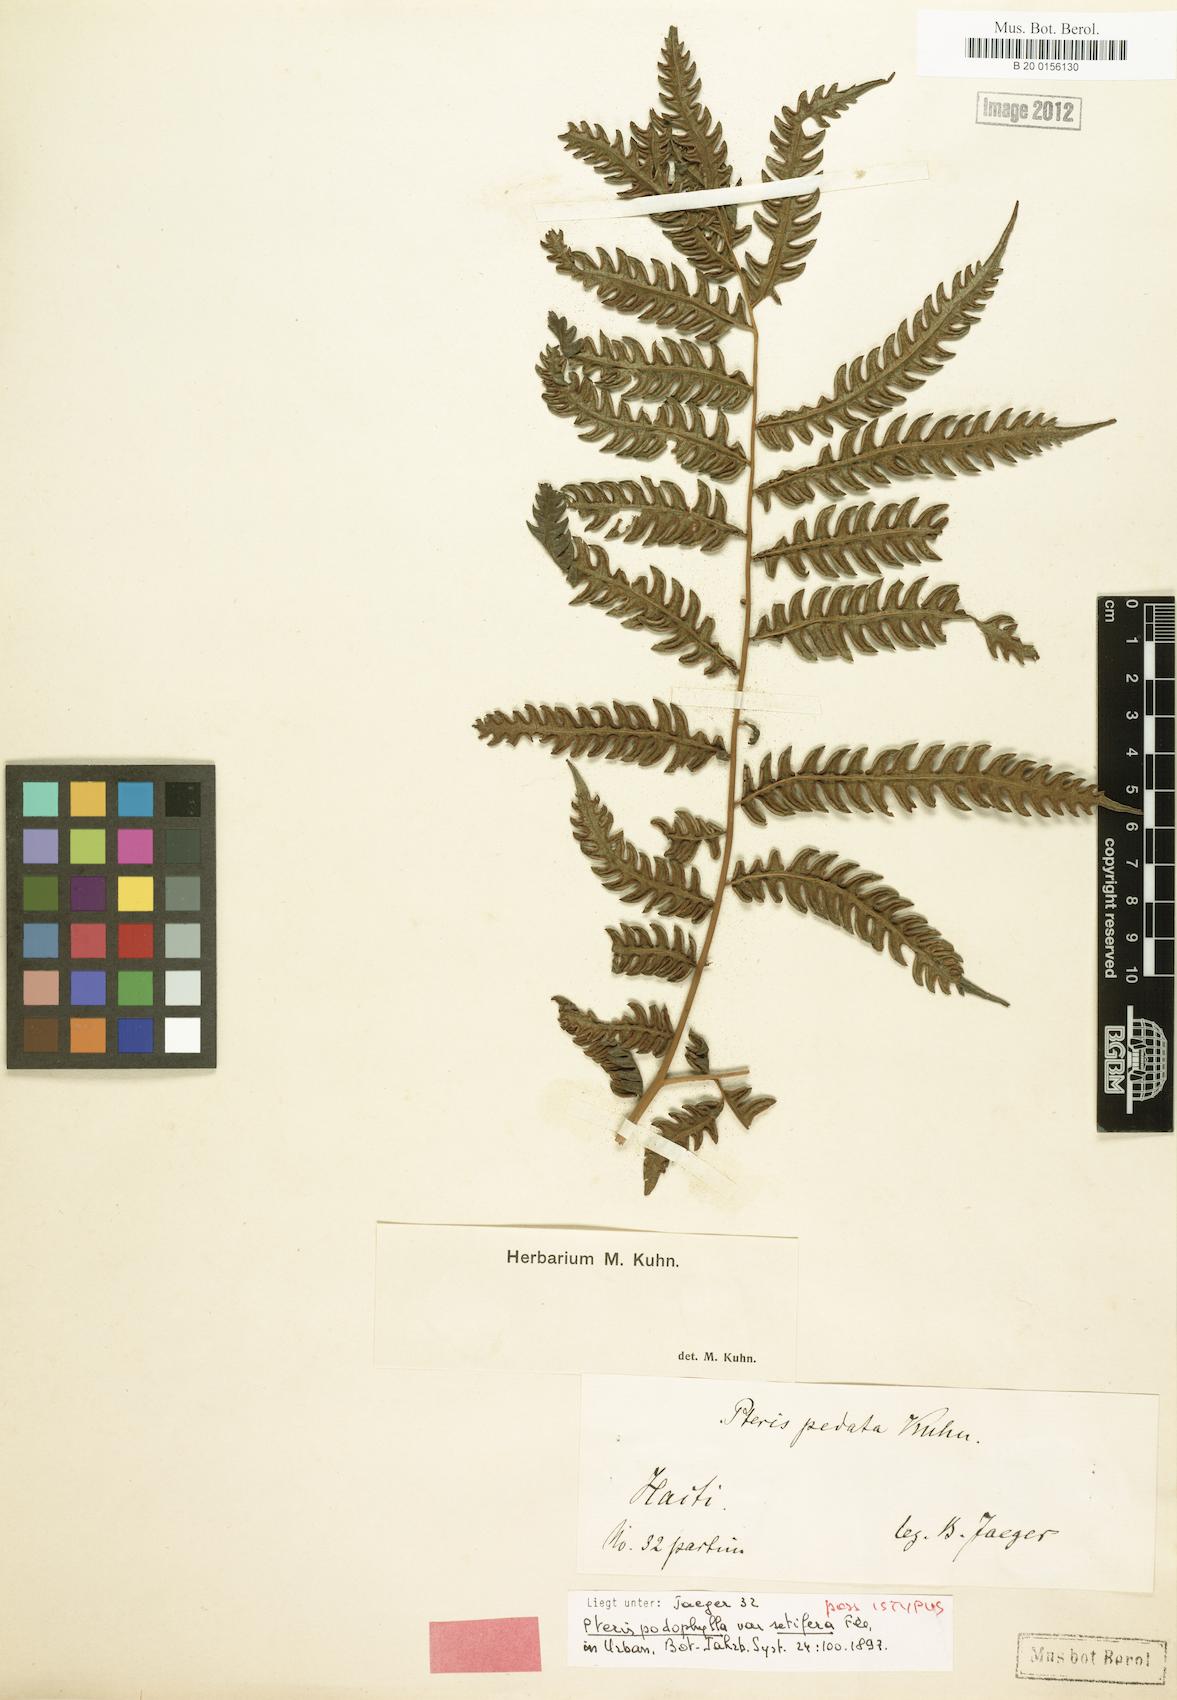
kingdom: Plantae
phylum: Tracheophyta
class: Polypodiopsida
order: Polypodiales
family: Pteridaceae
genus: Pteris
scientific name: Pteris orizabae
